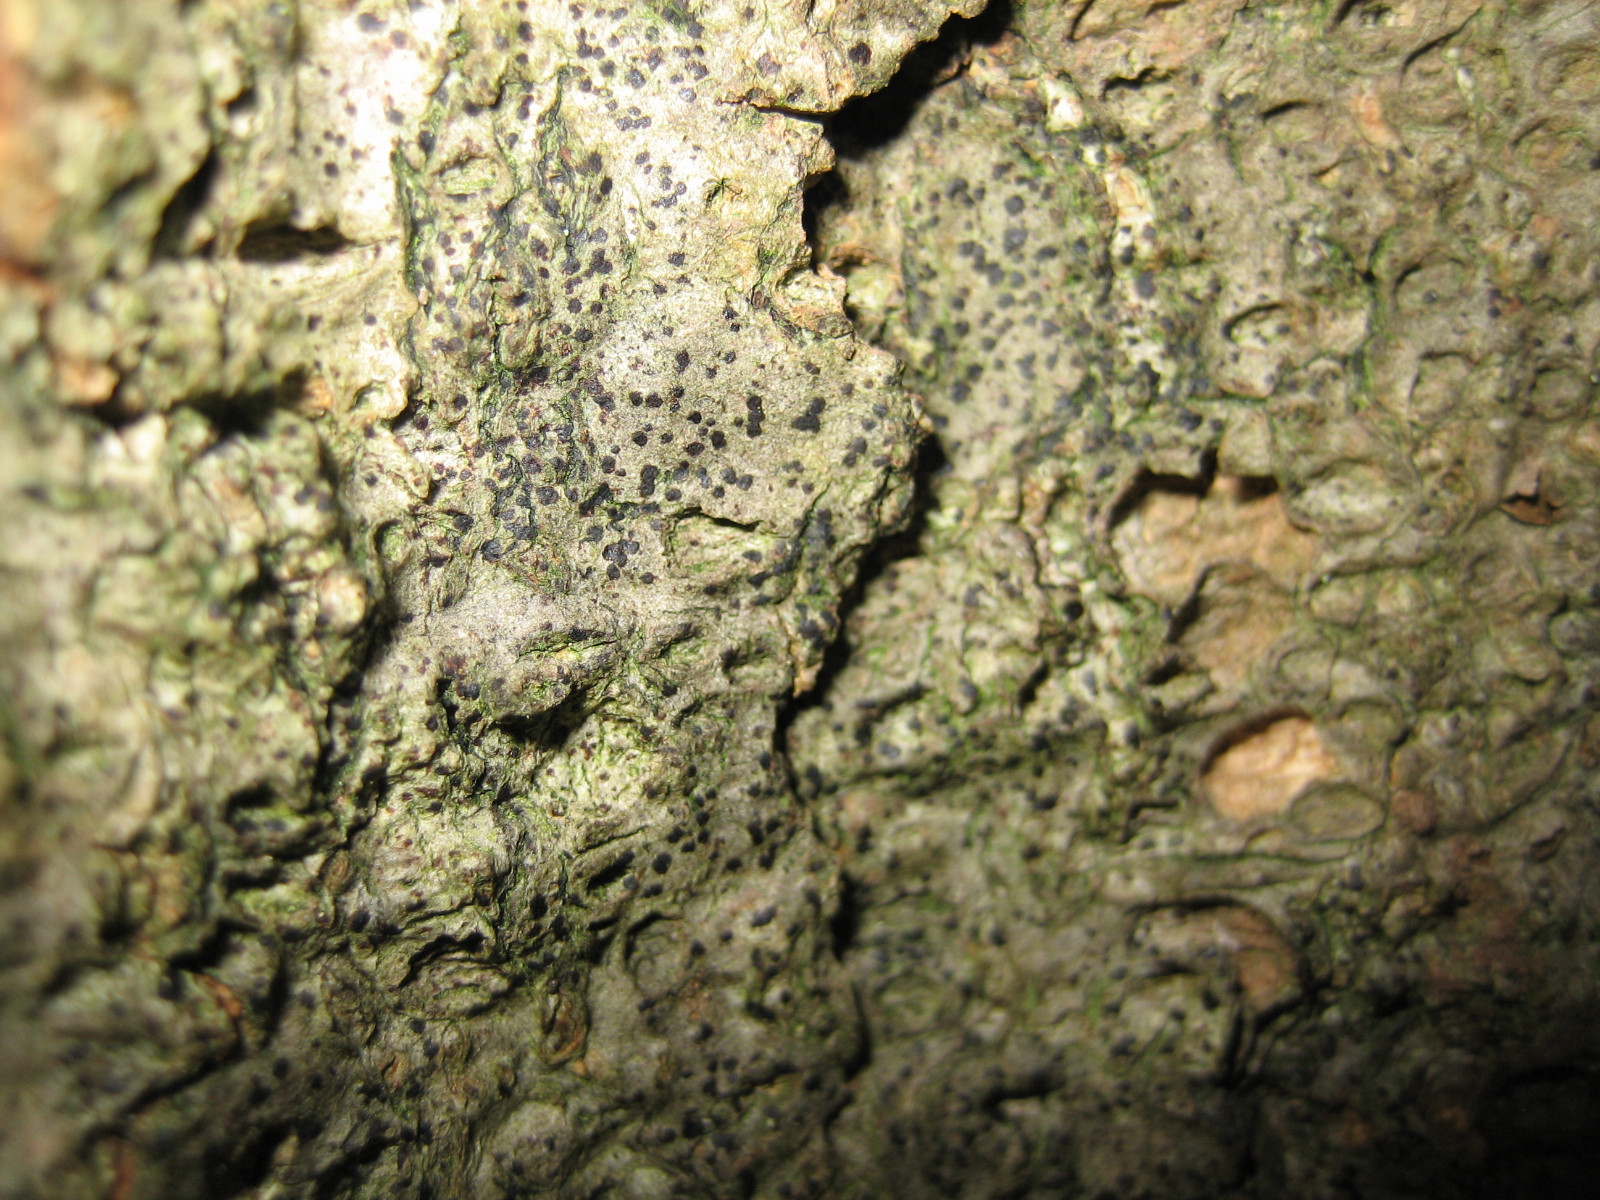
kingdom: Fungi
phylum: Ascomycota
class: Arthoniomycetes
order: Arthoniales
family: Arthoniaceae
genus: Diarthonis
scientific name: Diarthonis spadicea
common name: skygge-pletlav
